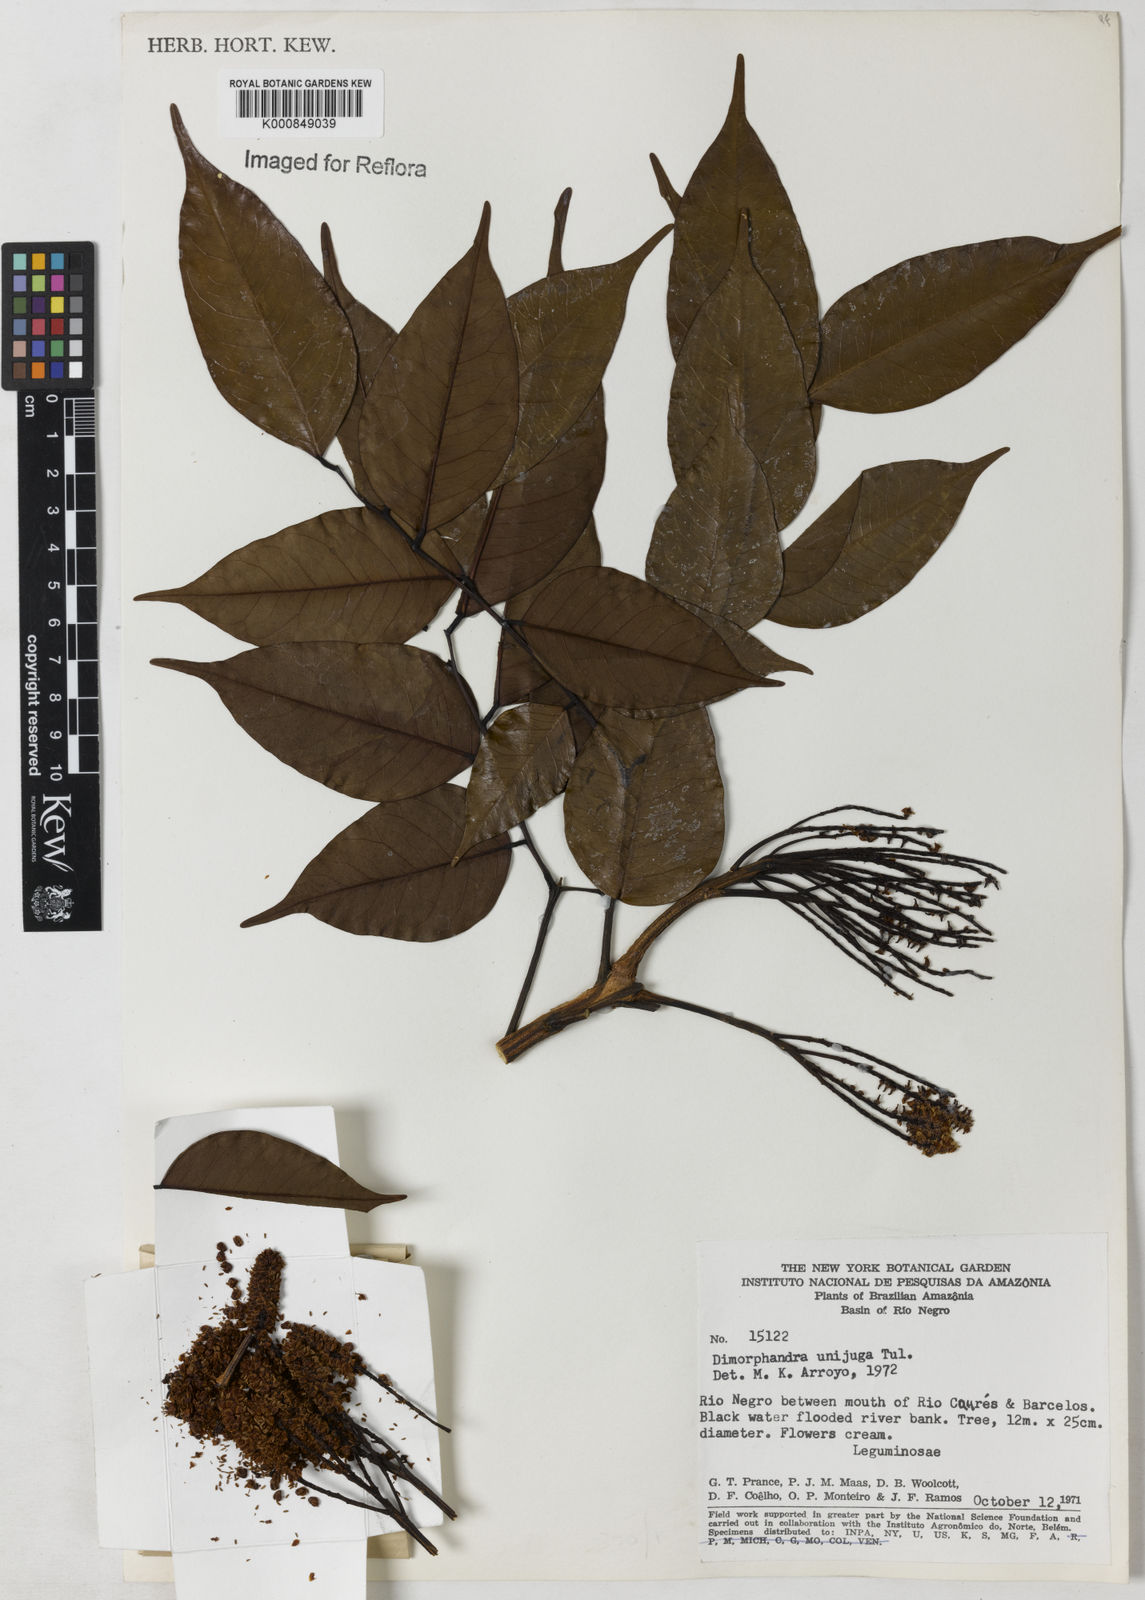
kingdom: Plantae
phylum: Tracheophyta
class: Magnoliopsida
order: Fabales
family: Fabaceae
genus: Dimorphandra
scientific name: Dimorphandra unijuga
